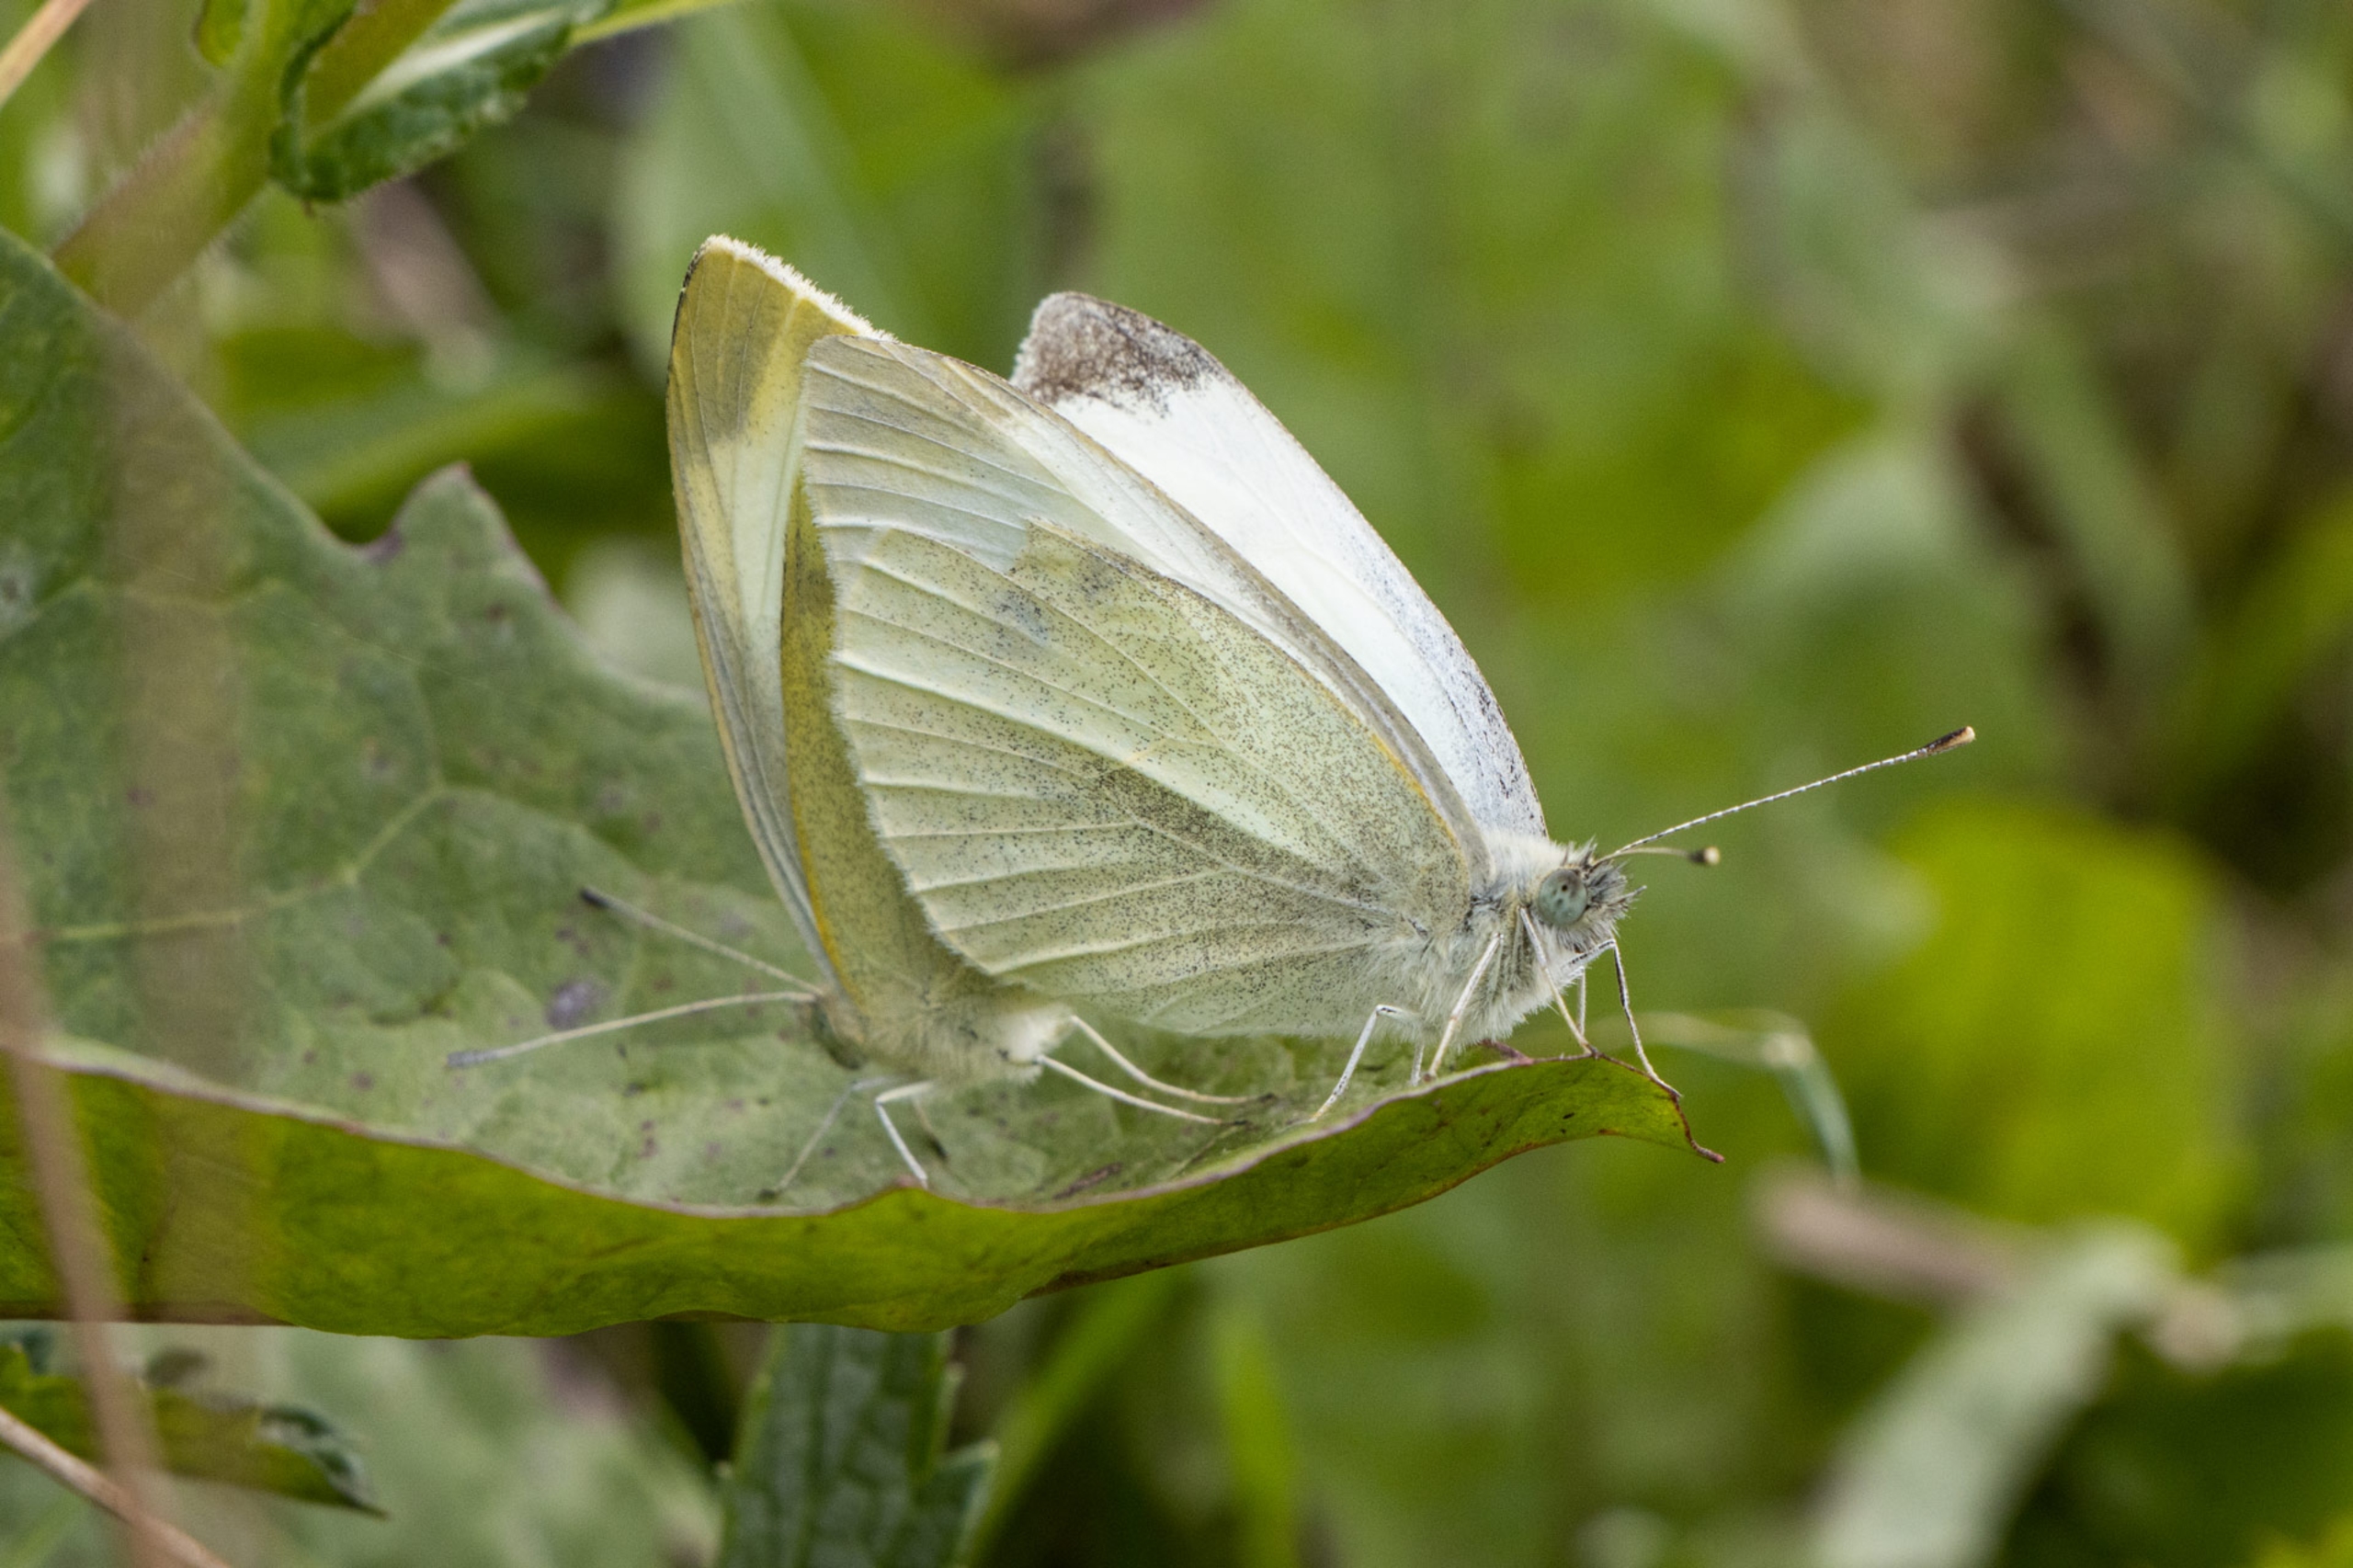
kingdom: Animalia
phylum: Arthropoda
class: Insecta
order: Lepidoptera
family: Pieridae
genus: Pieris
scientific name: Pieris rapae
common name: Lille kålsommerfugl
